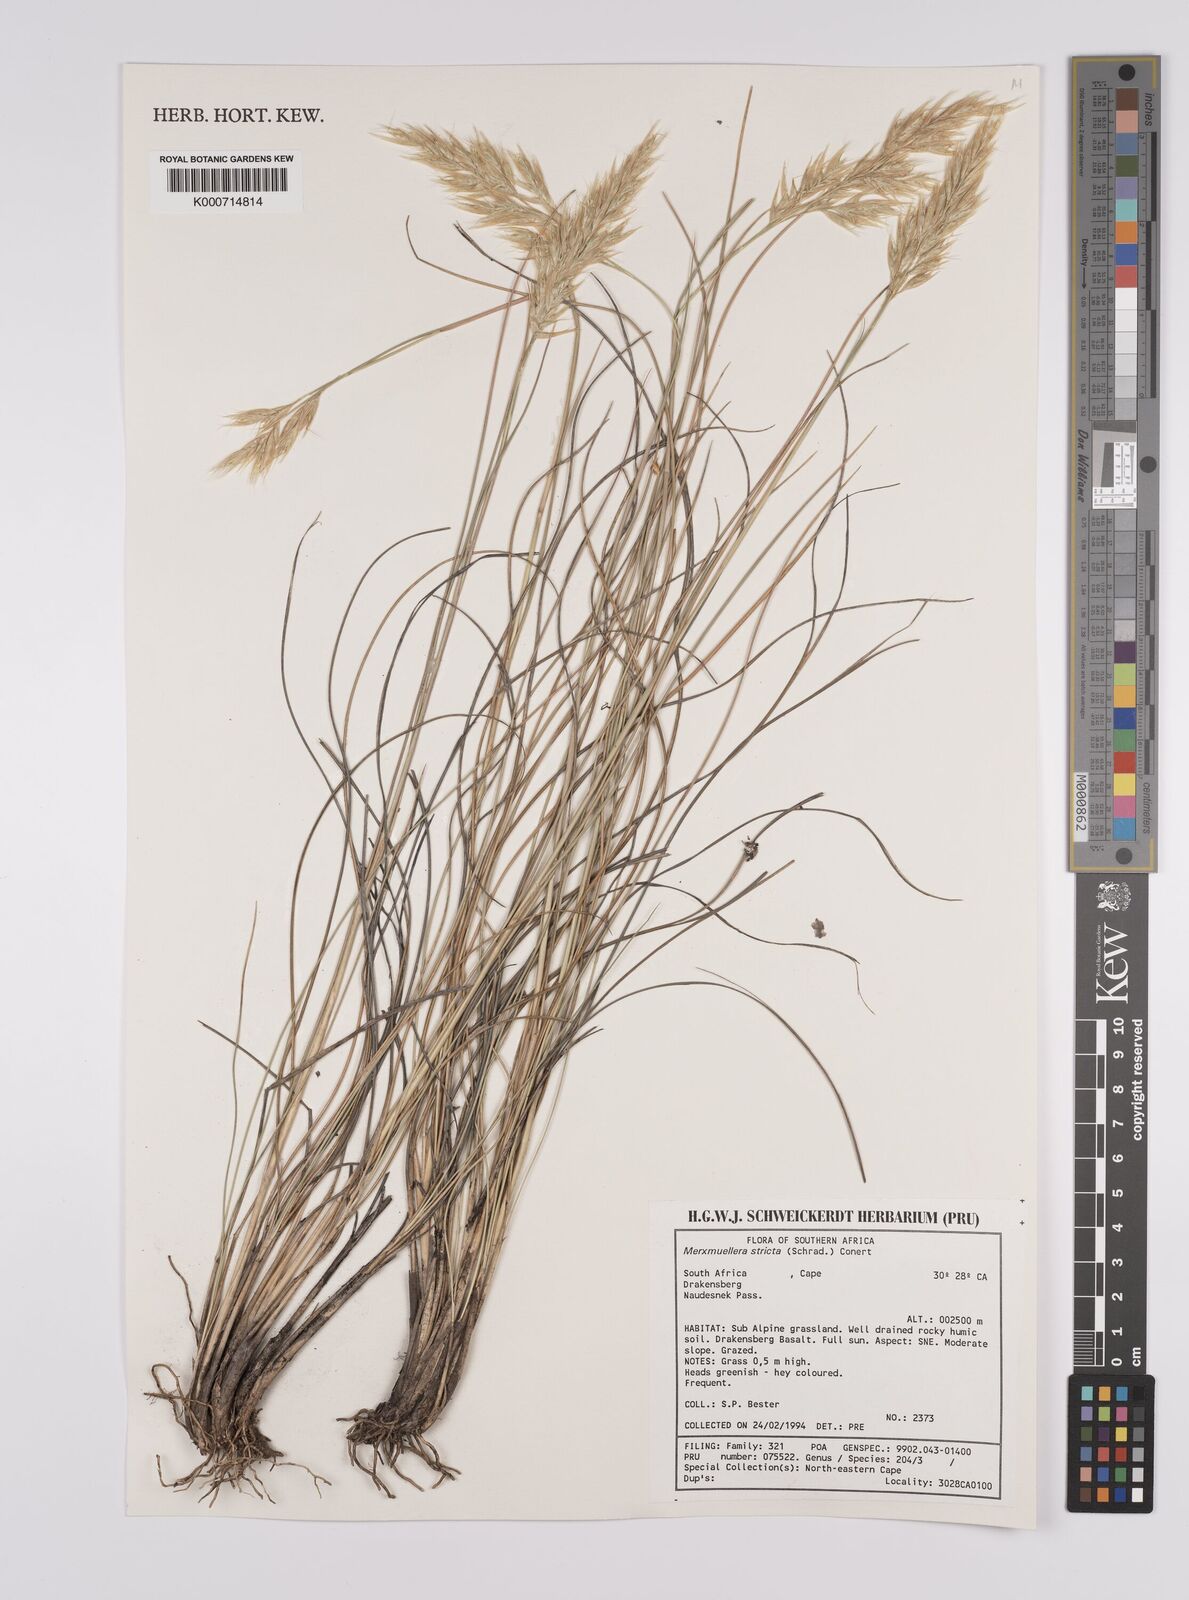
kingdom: Plantae
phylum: Tracheophyta
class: Liliopsida
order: Poales
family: Poaceae
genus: Rytidosperma
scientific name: Rytidosperma
